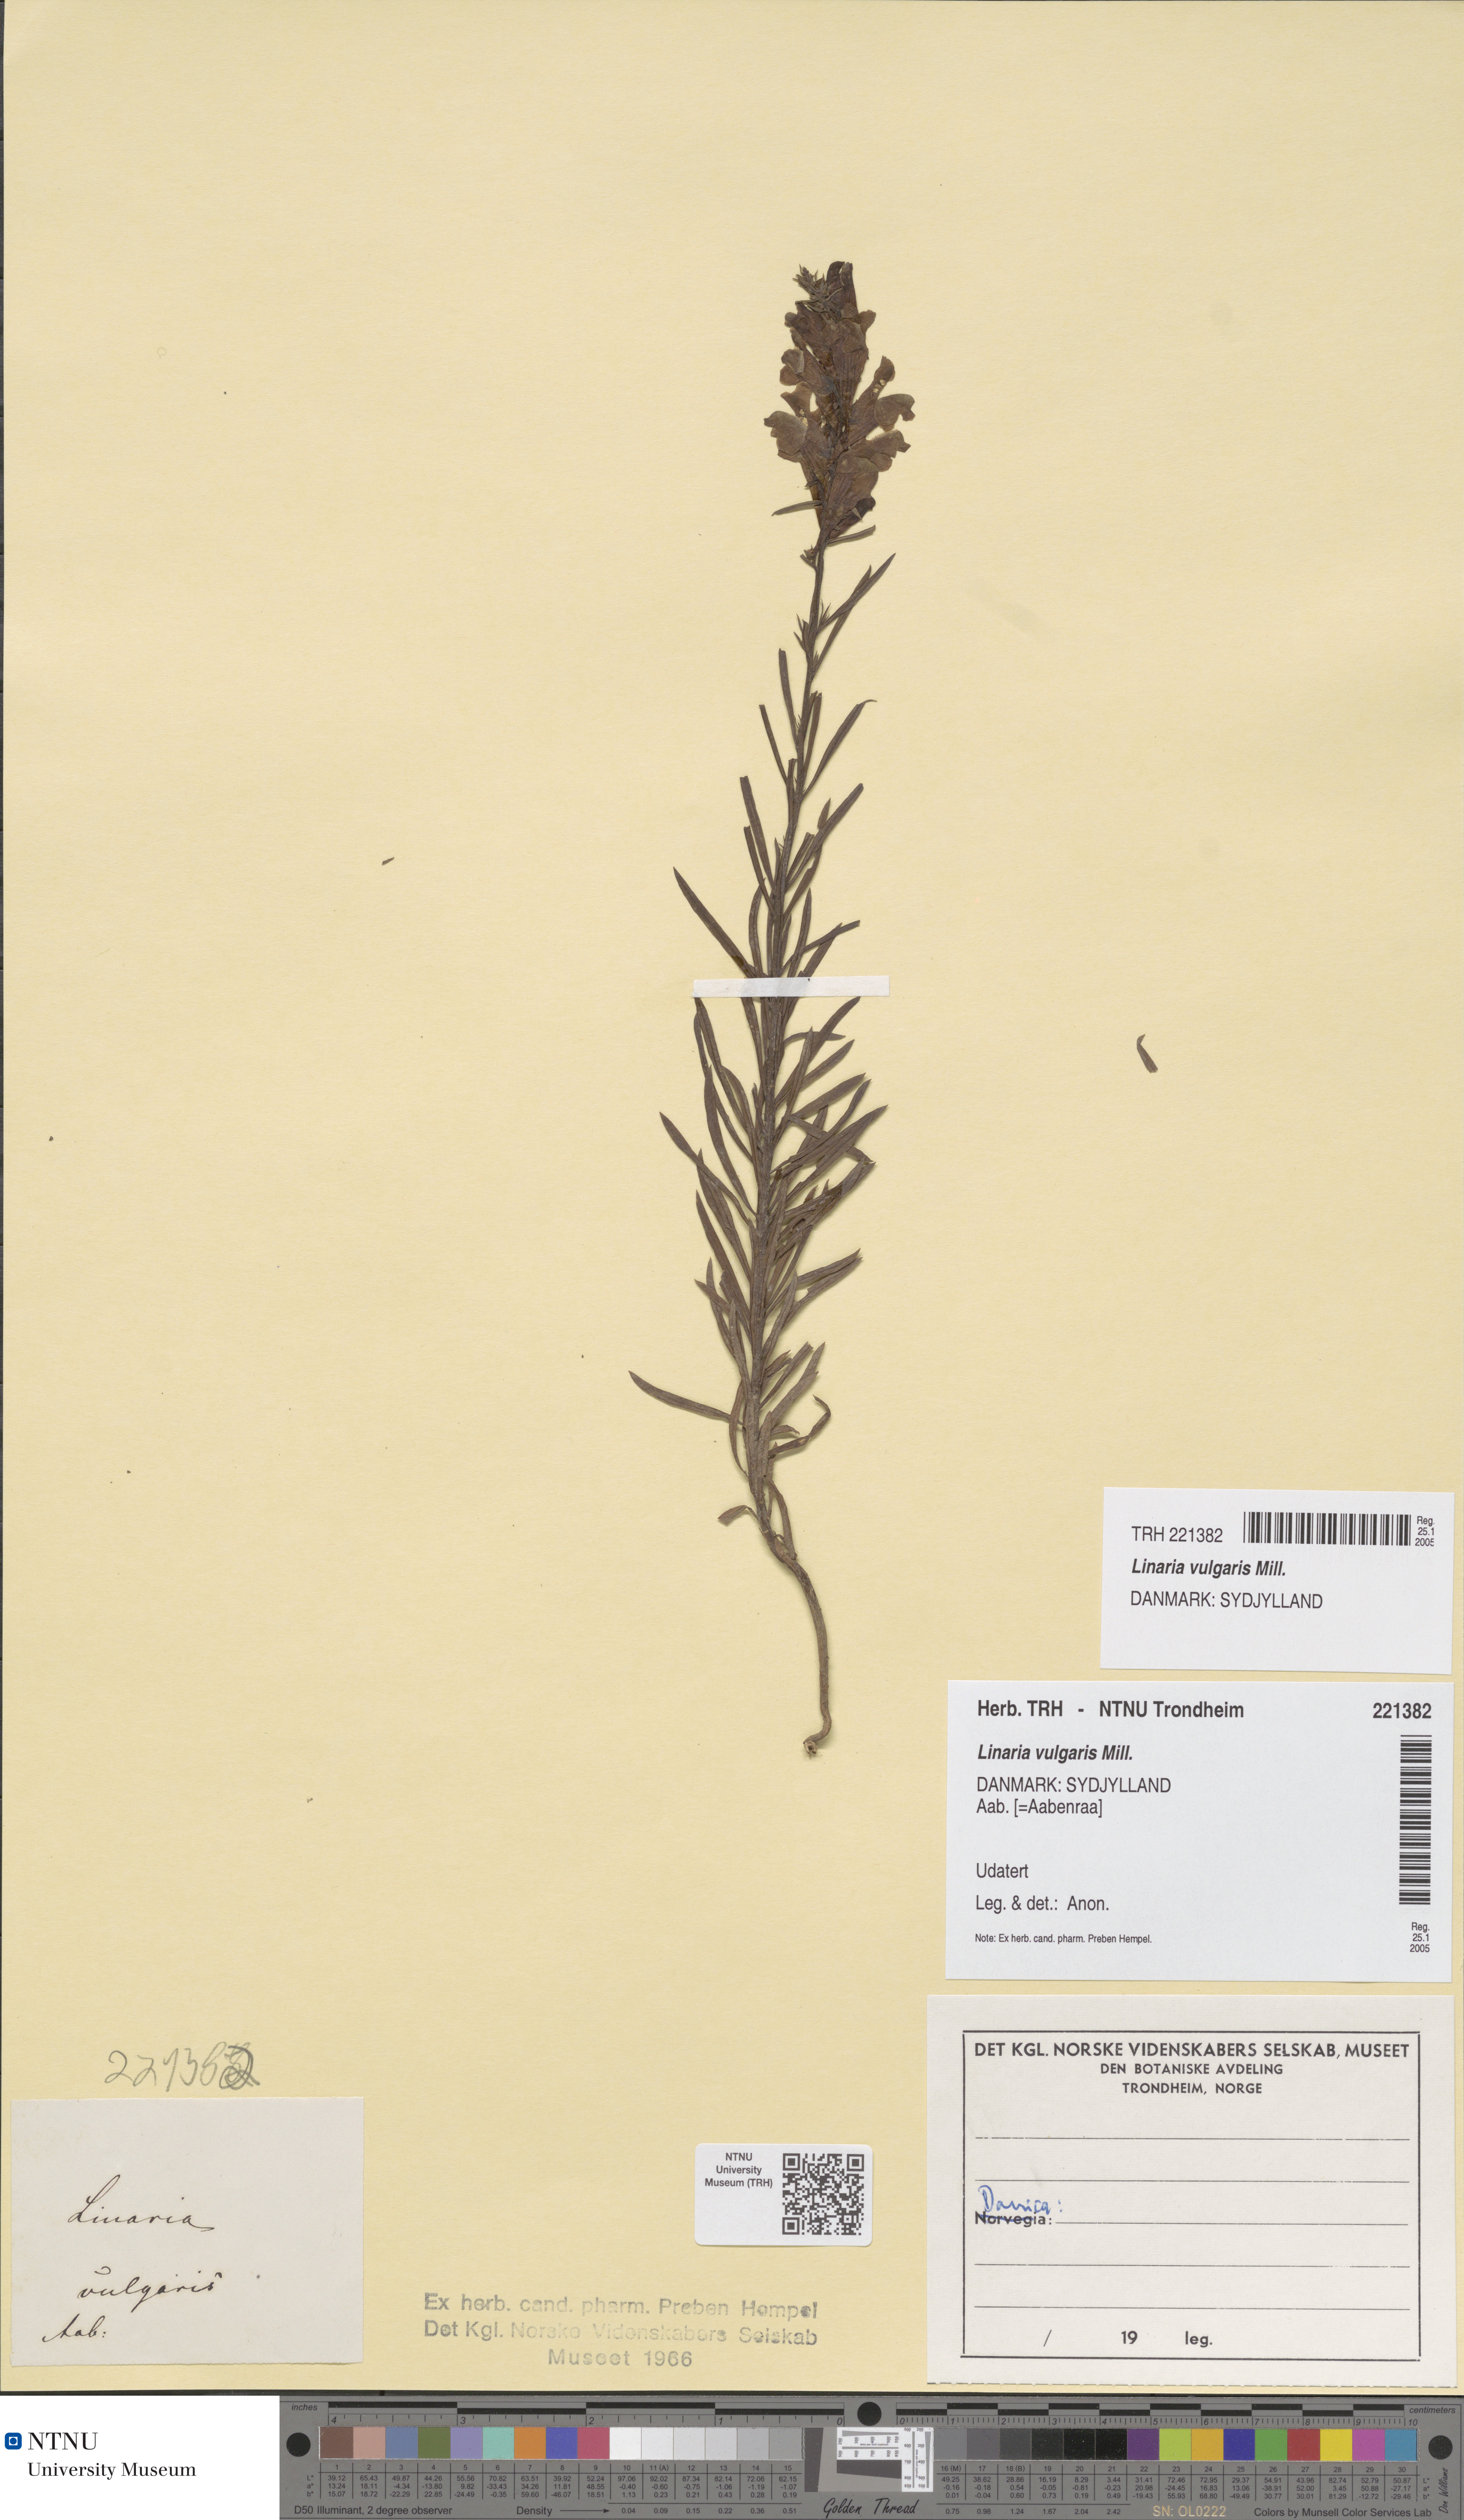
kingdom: Plantae
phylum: Tracheophyta
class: Magnoliopsida
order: Lamiales
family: Plantaginaceae
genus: Linaria
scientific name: Linaria vulgaris
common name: Butter and eggs
